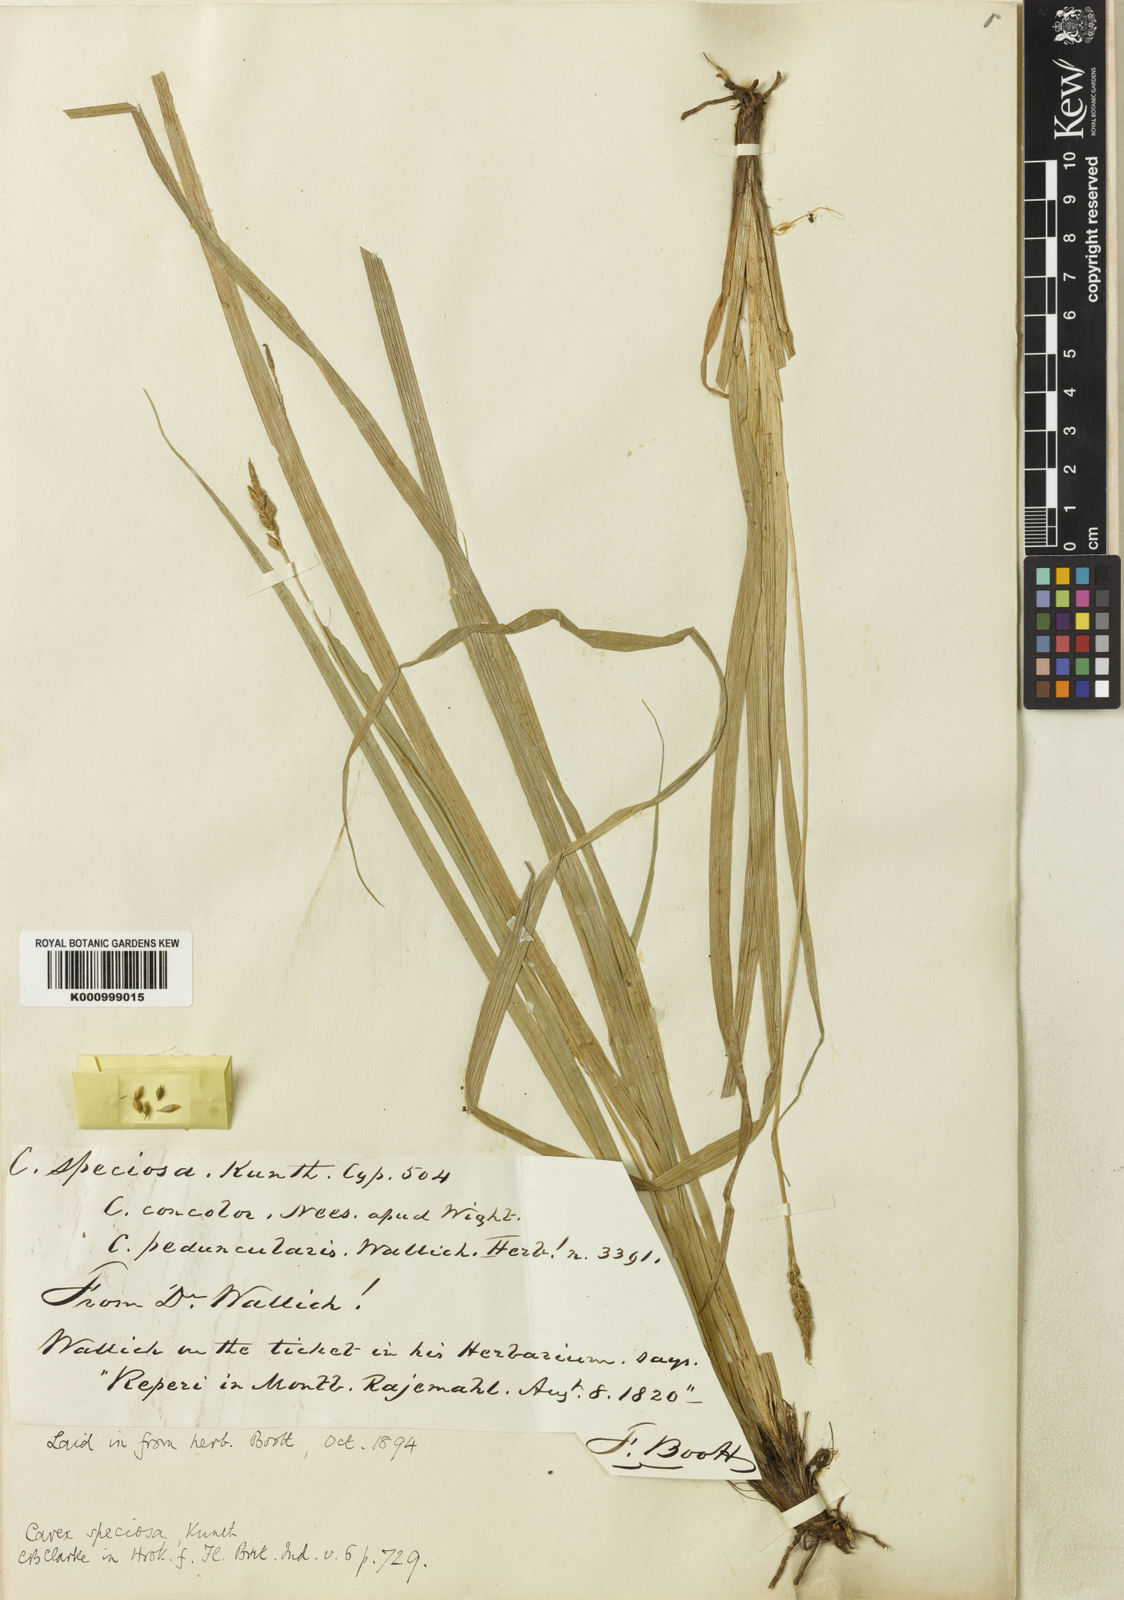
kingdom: Plantae
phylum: Tracheophyta
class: Liliopsida
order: Poales
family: Cyperaceae
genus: Carex
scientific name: Carex speciosa
